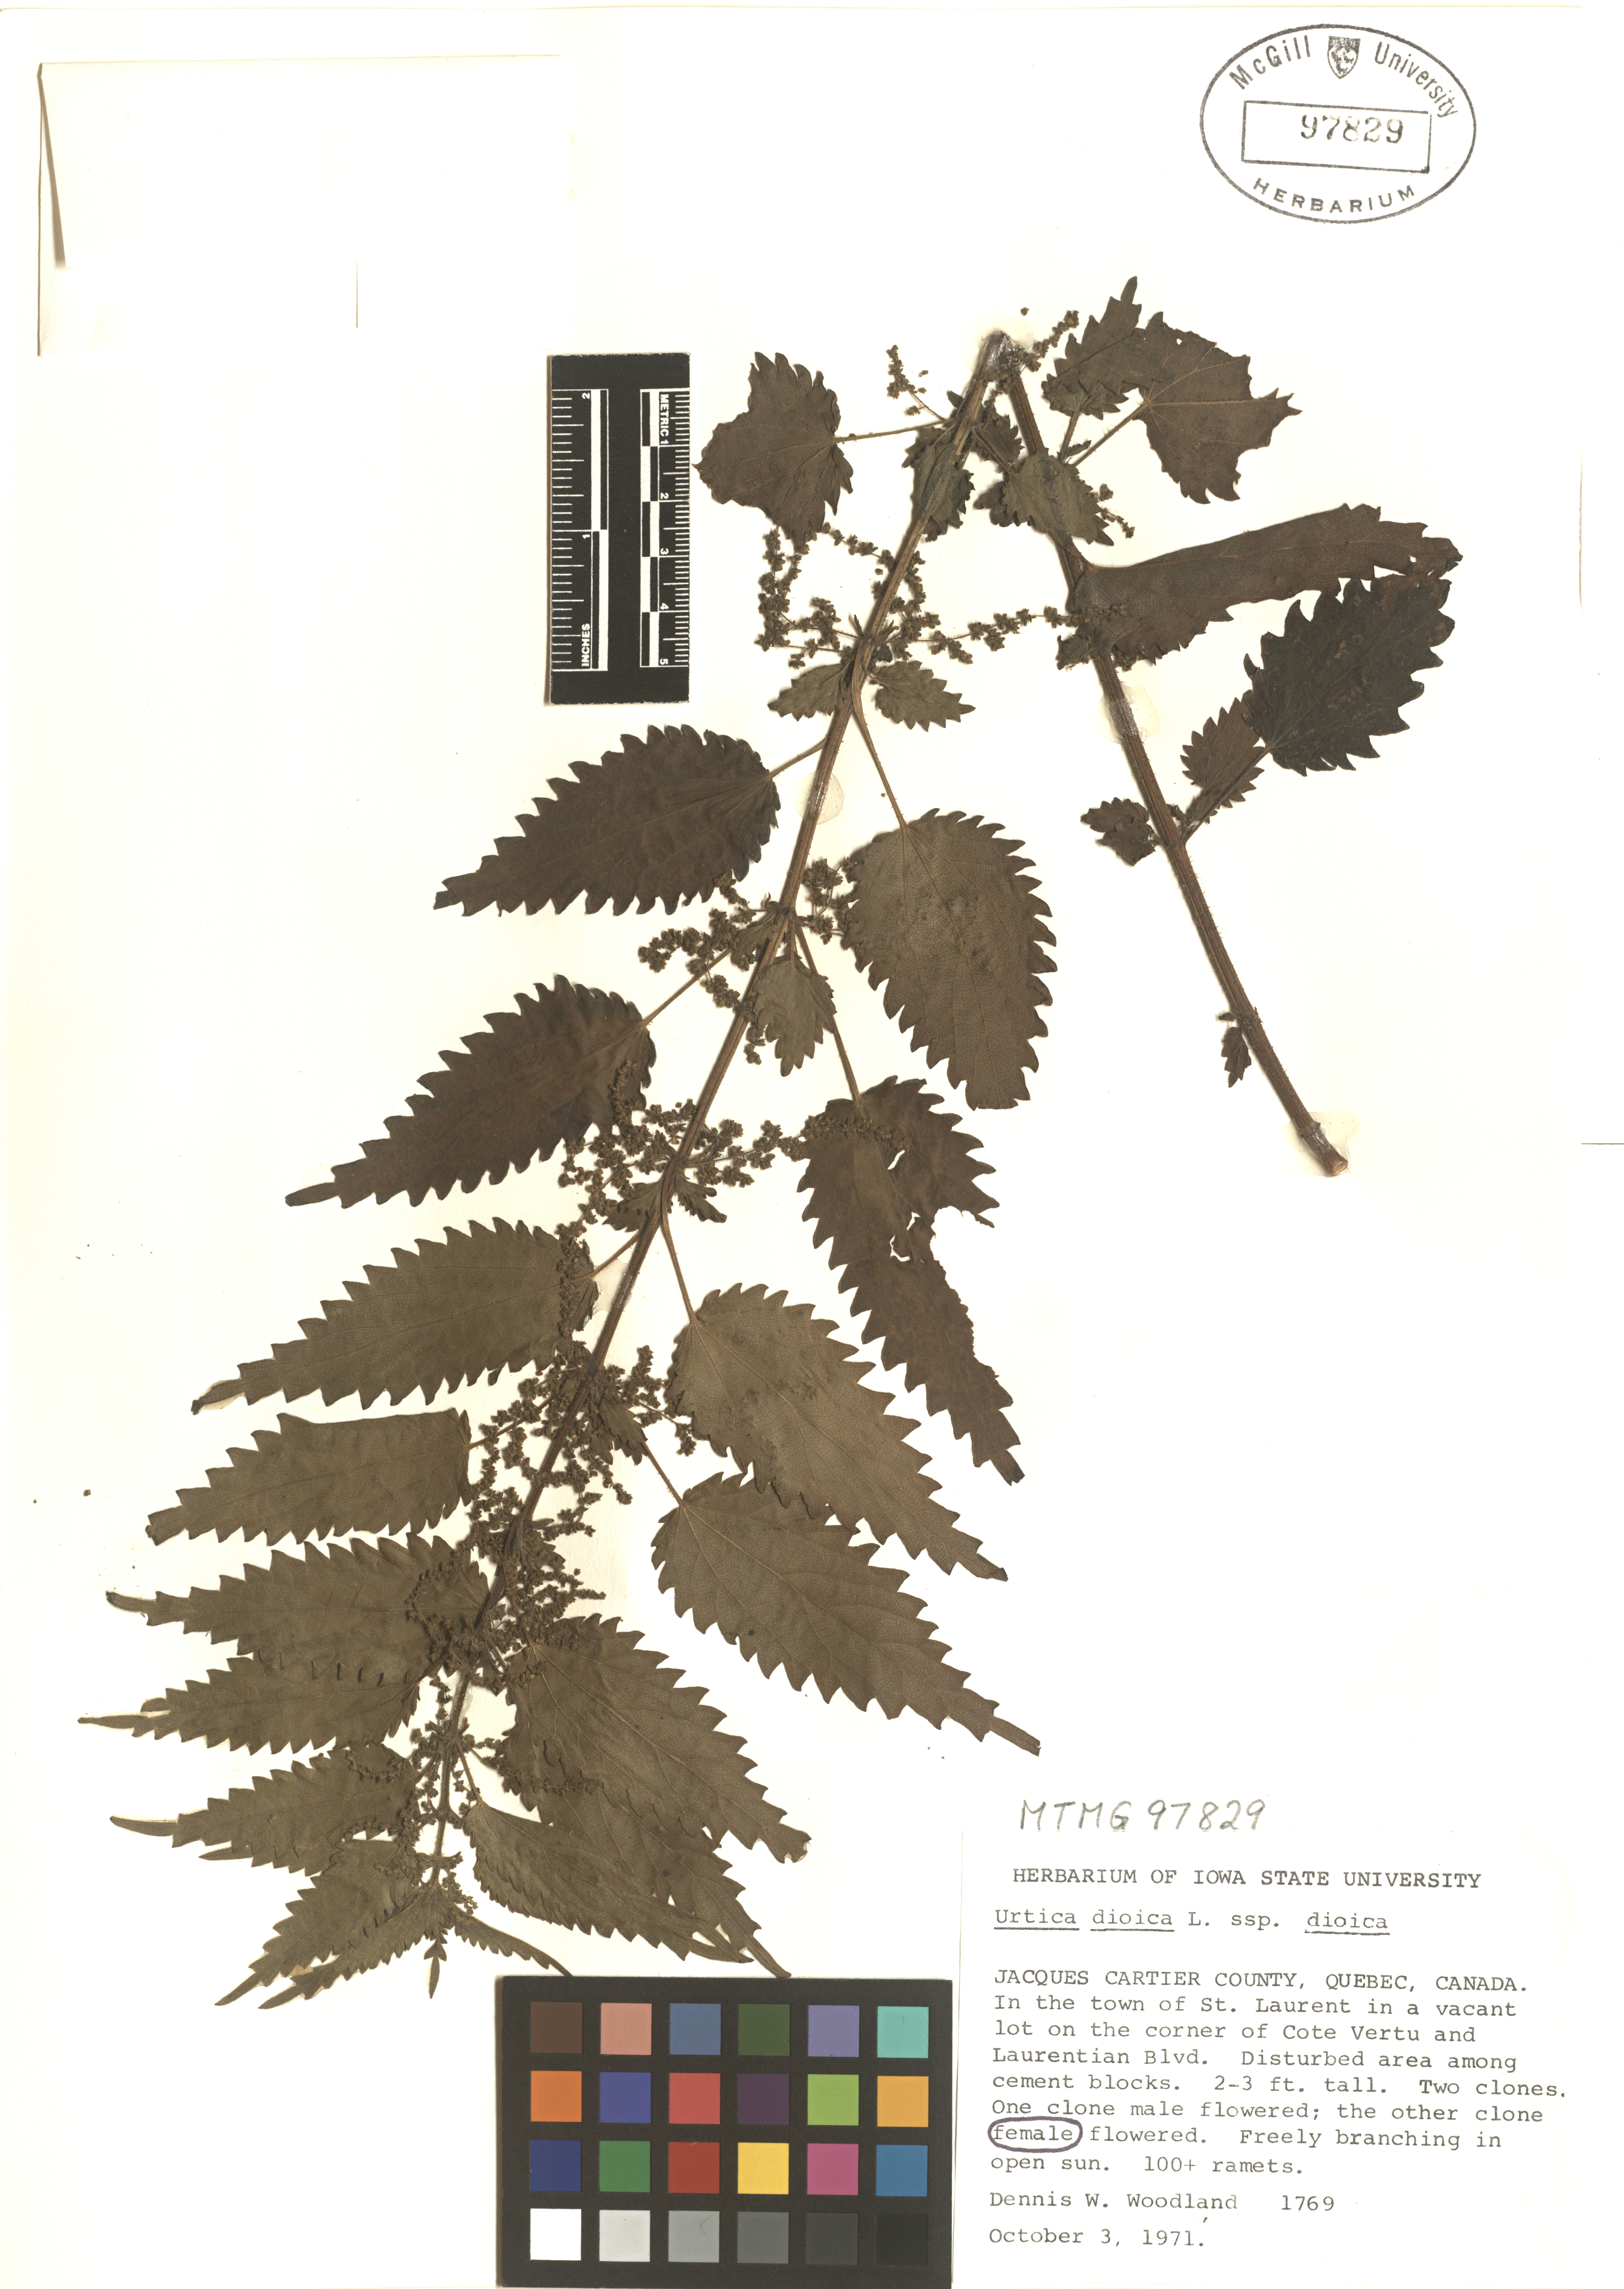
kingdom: Plantae
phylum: Tracheophyta
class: Magnoliopsida
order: Rosales
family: Urticaceae
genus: Urtica
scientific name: Urtica dioica
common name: Common nettle
